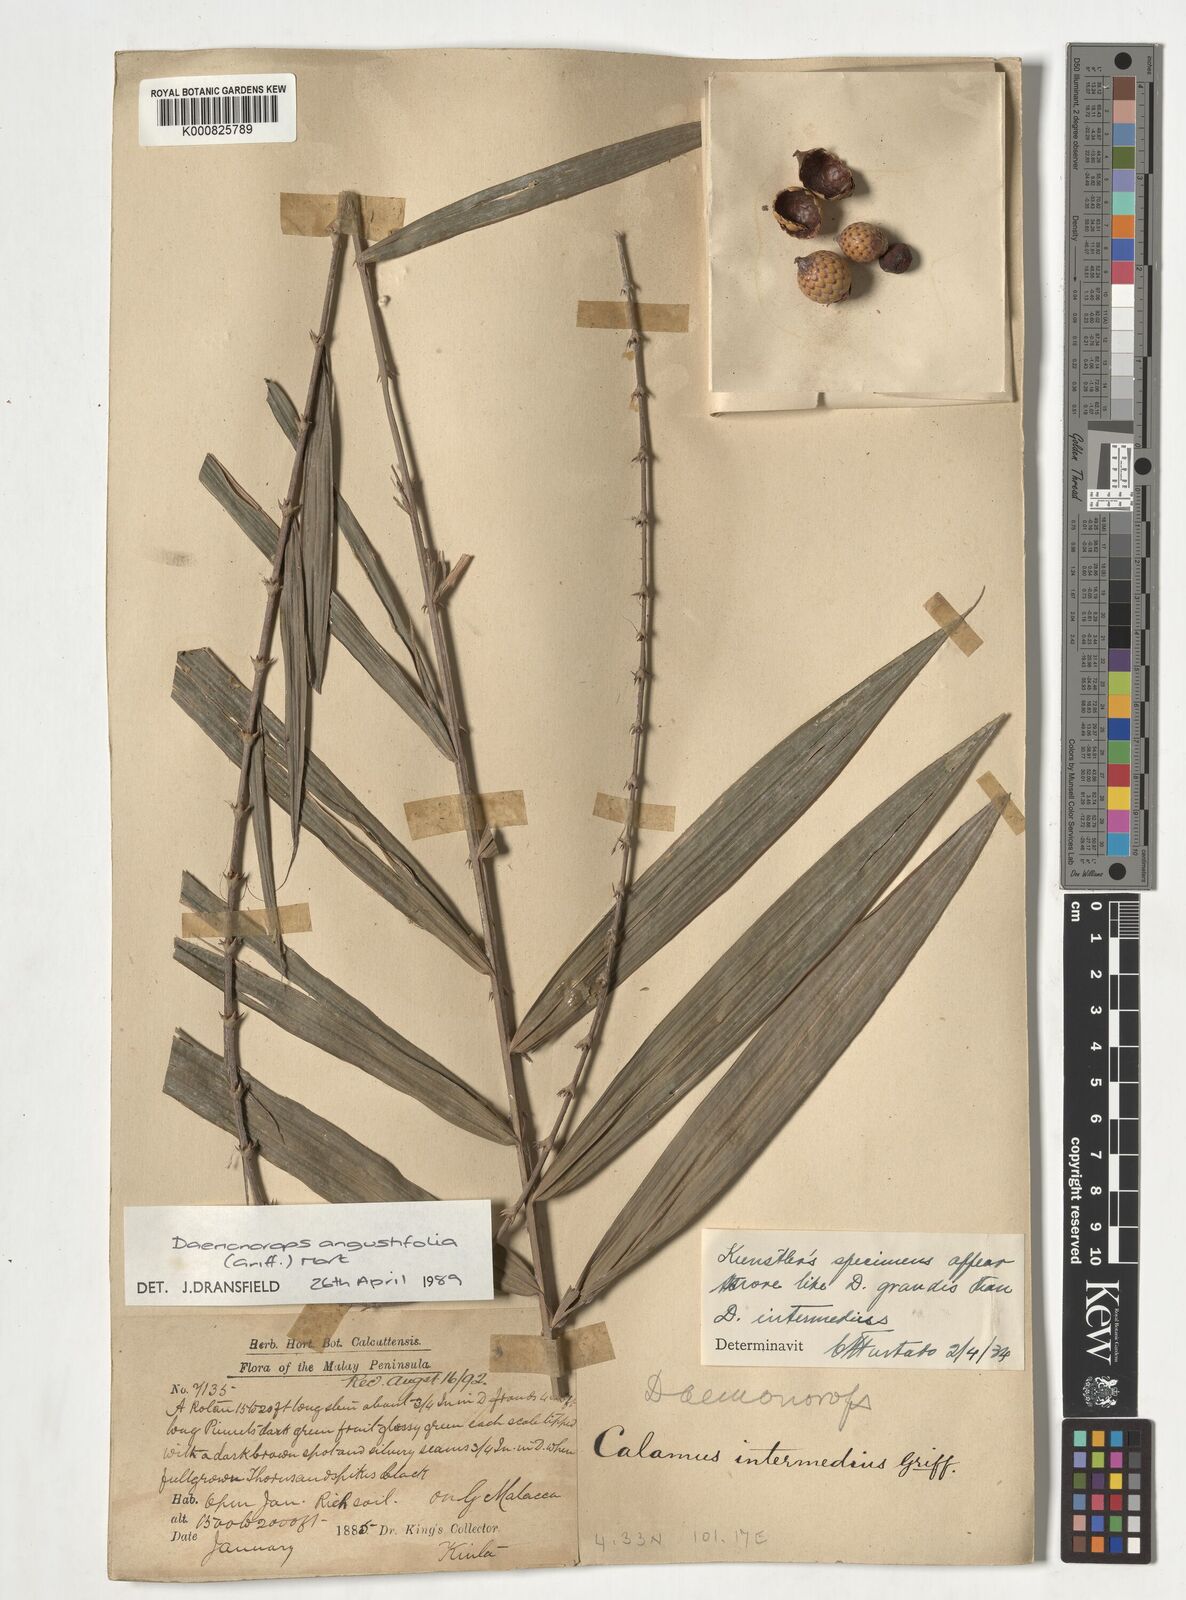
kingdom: Plantae
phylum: Tracheophyta
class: Liliopsida
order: Arecales
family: Arecaceae
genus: Calamus
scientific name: Calamus melanochaetes
